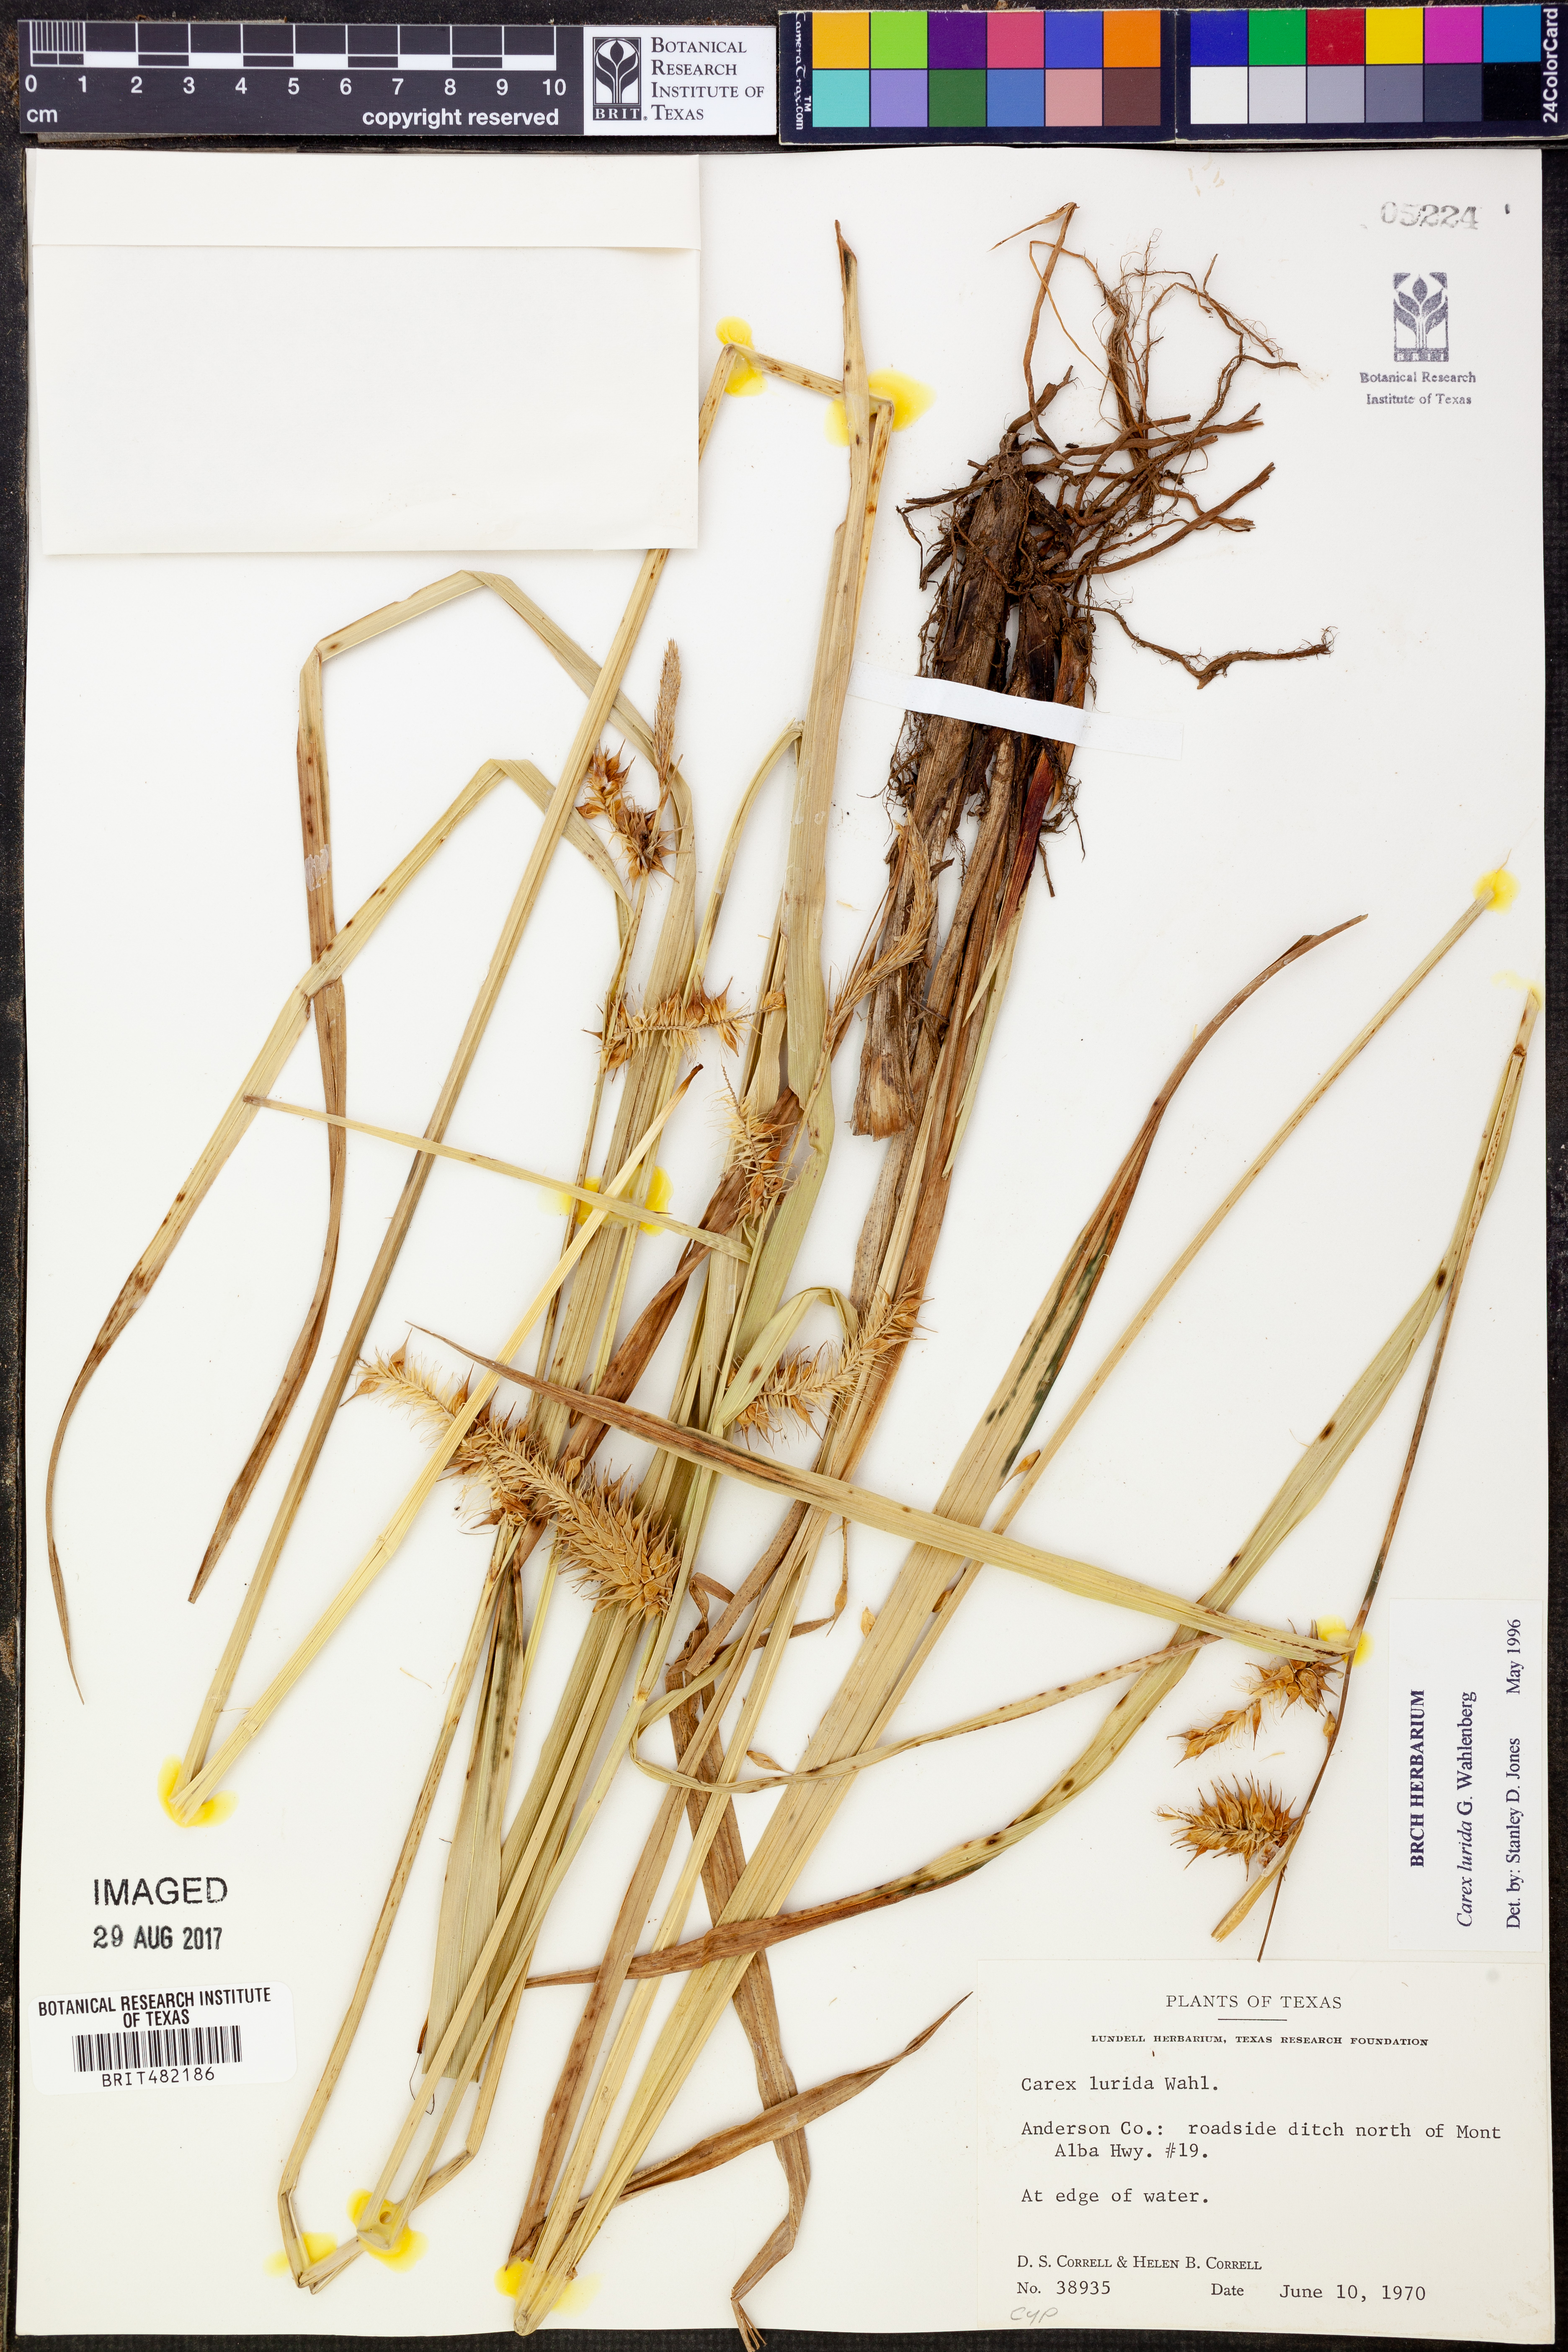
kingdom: Plantae
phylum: Tracheophyta
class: Liliopsida
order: Poales
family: Cyperaceae
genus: Carex
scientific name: Carex lurida
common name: Sallow sedge
